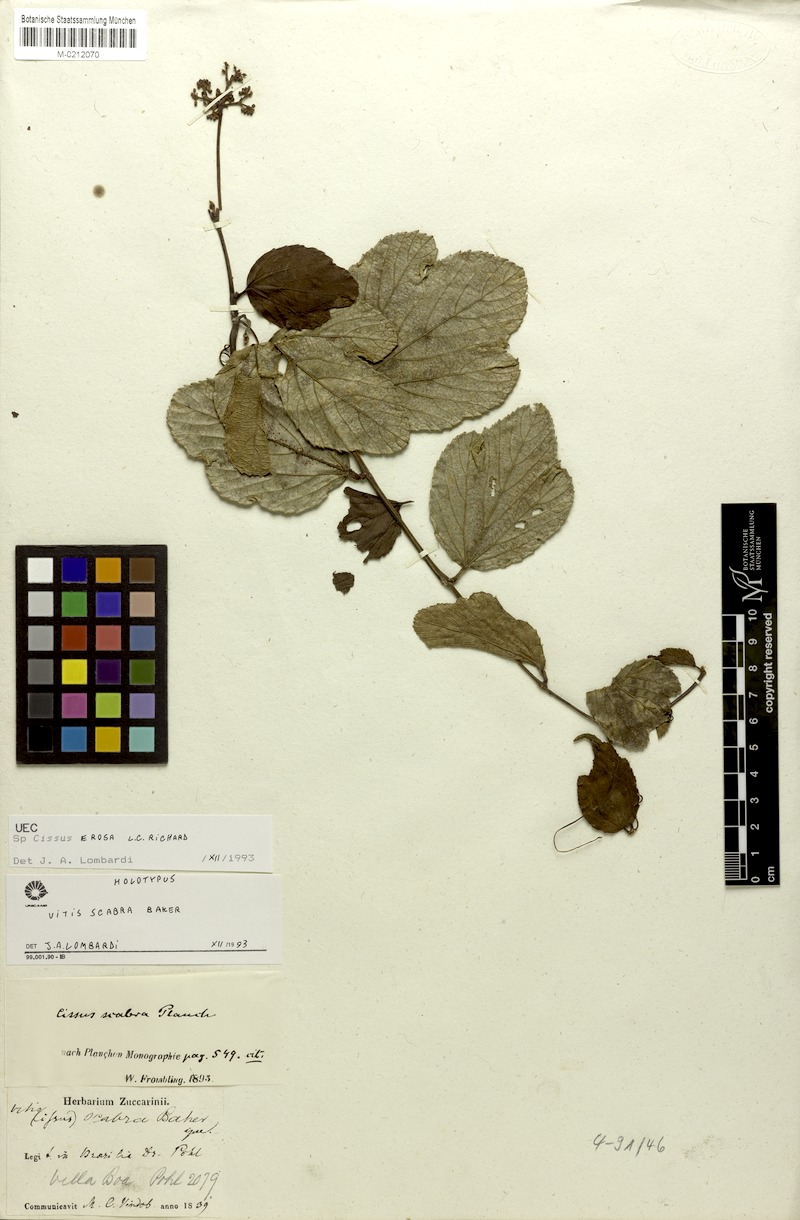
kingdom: Plantae
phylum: Tracheophyta
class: Magnoliopsida
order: Vitales
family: Vitaceae
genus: Cissus
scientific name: Cissus erosa
